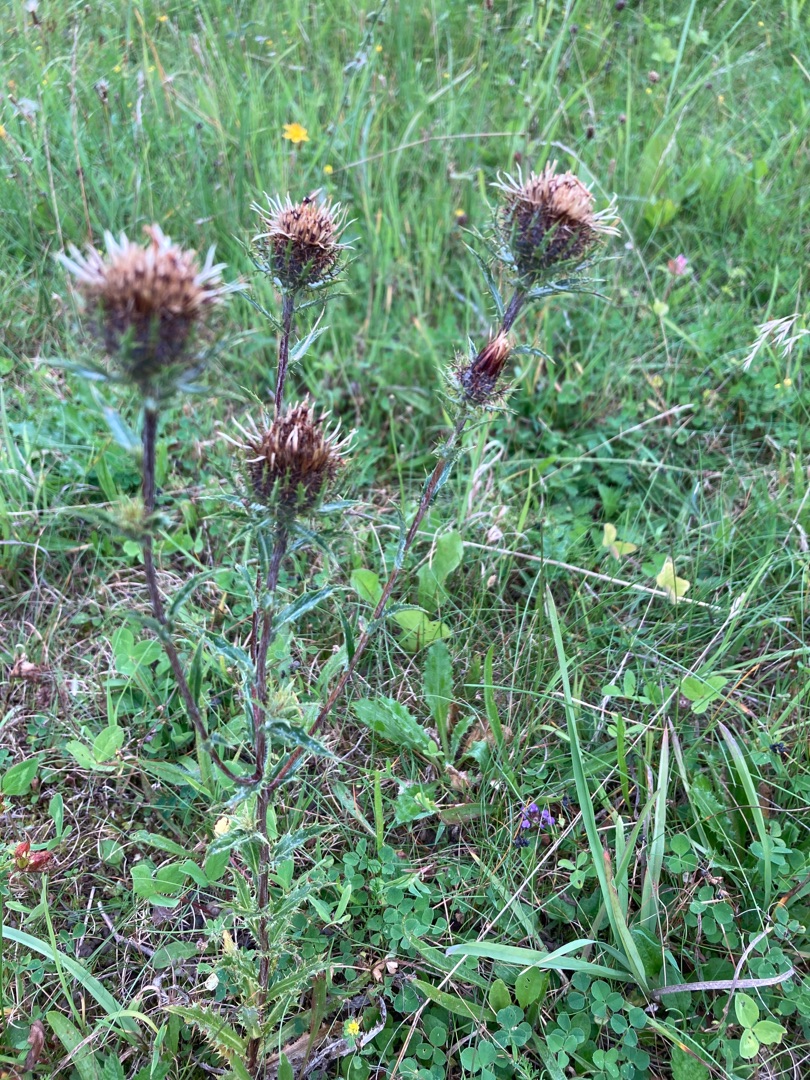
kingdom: Plantae
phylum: Tracheophyta
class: Magnoliopsida
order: Asterales
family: Asteraceae
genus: Carlina
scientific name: Carlina vulgaris
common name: Bakketidsel
